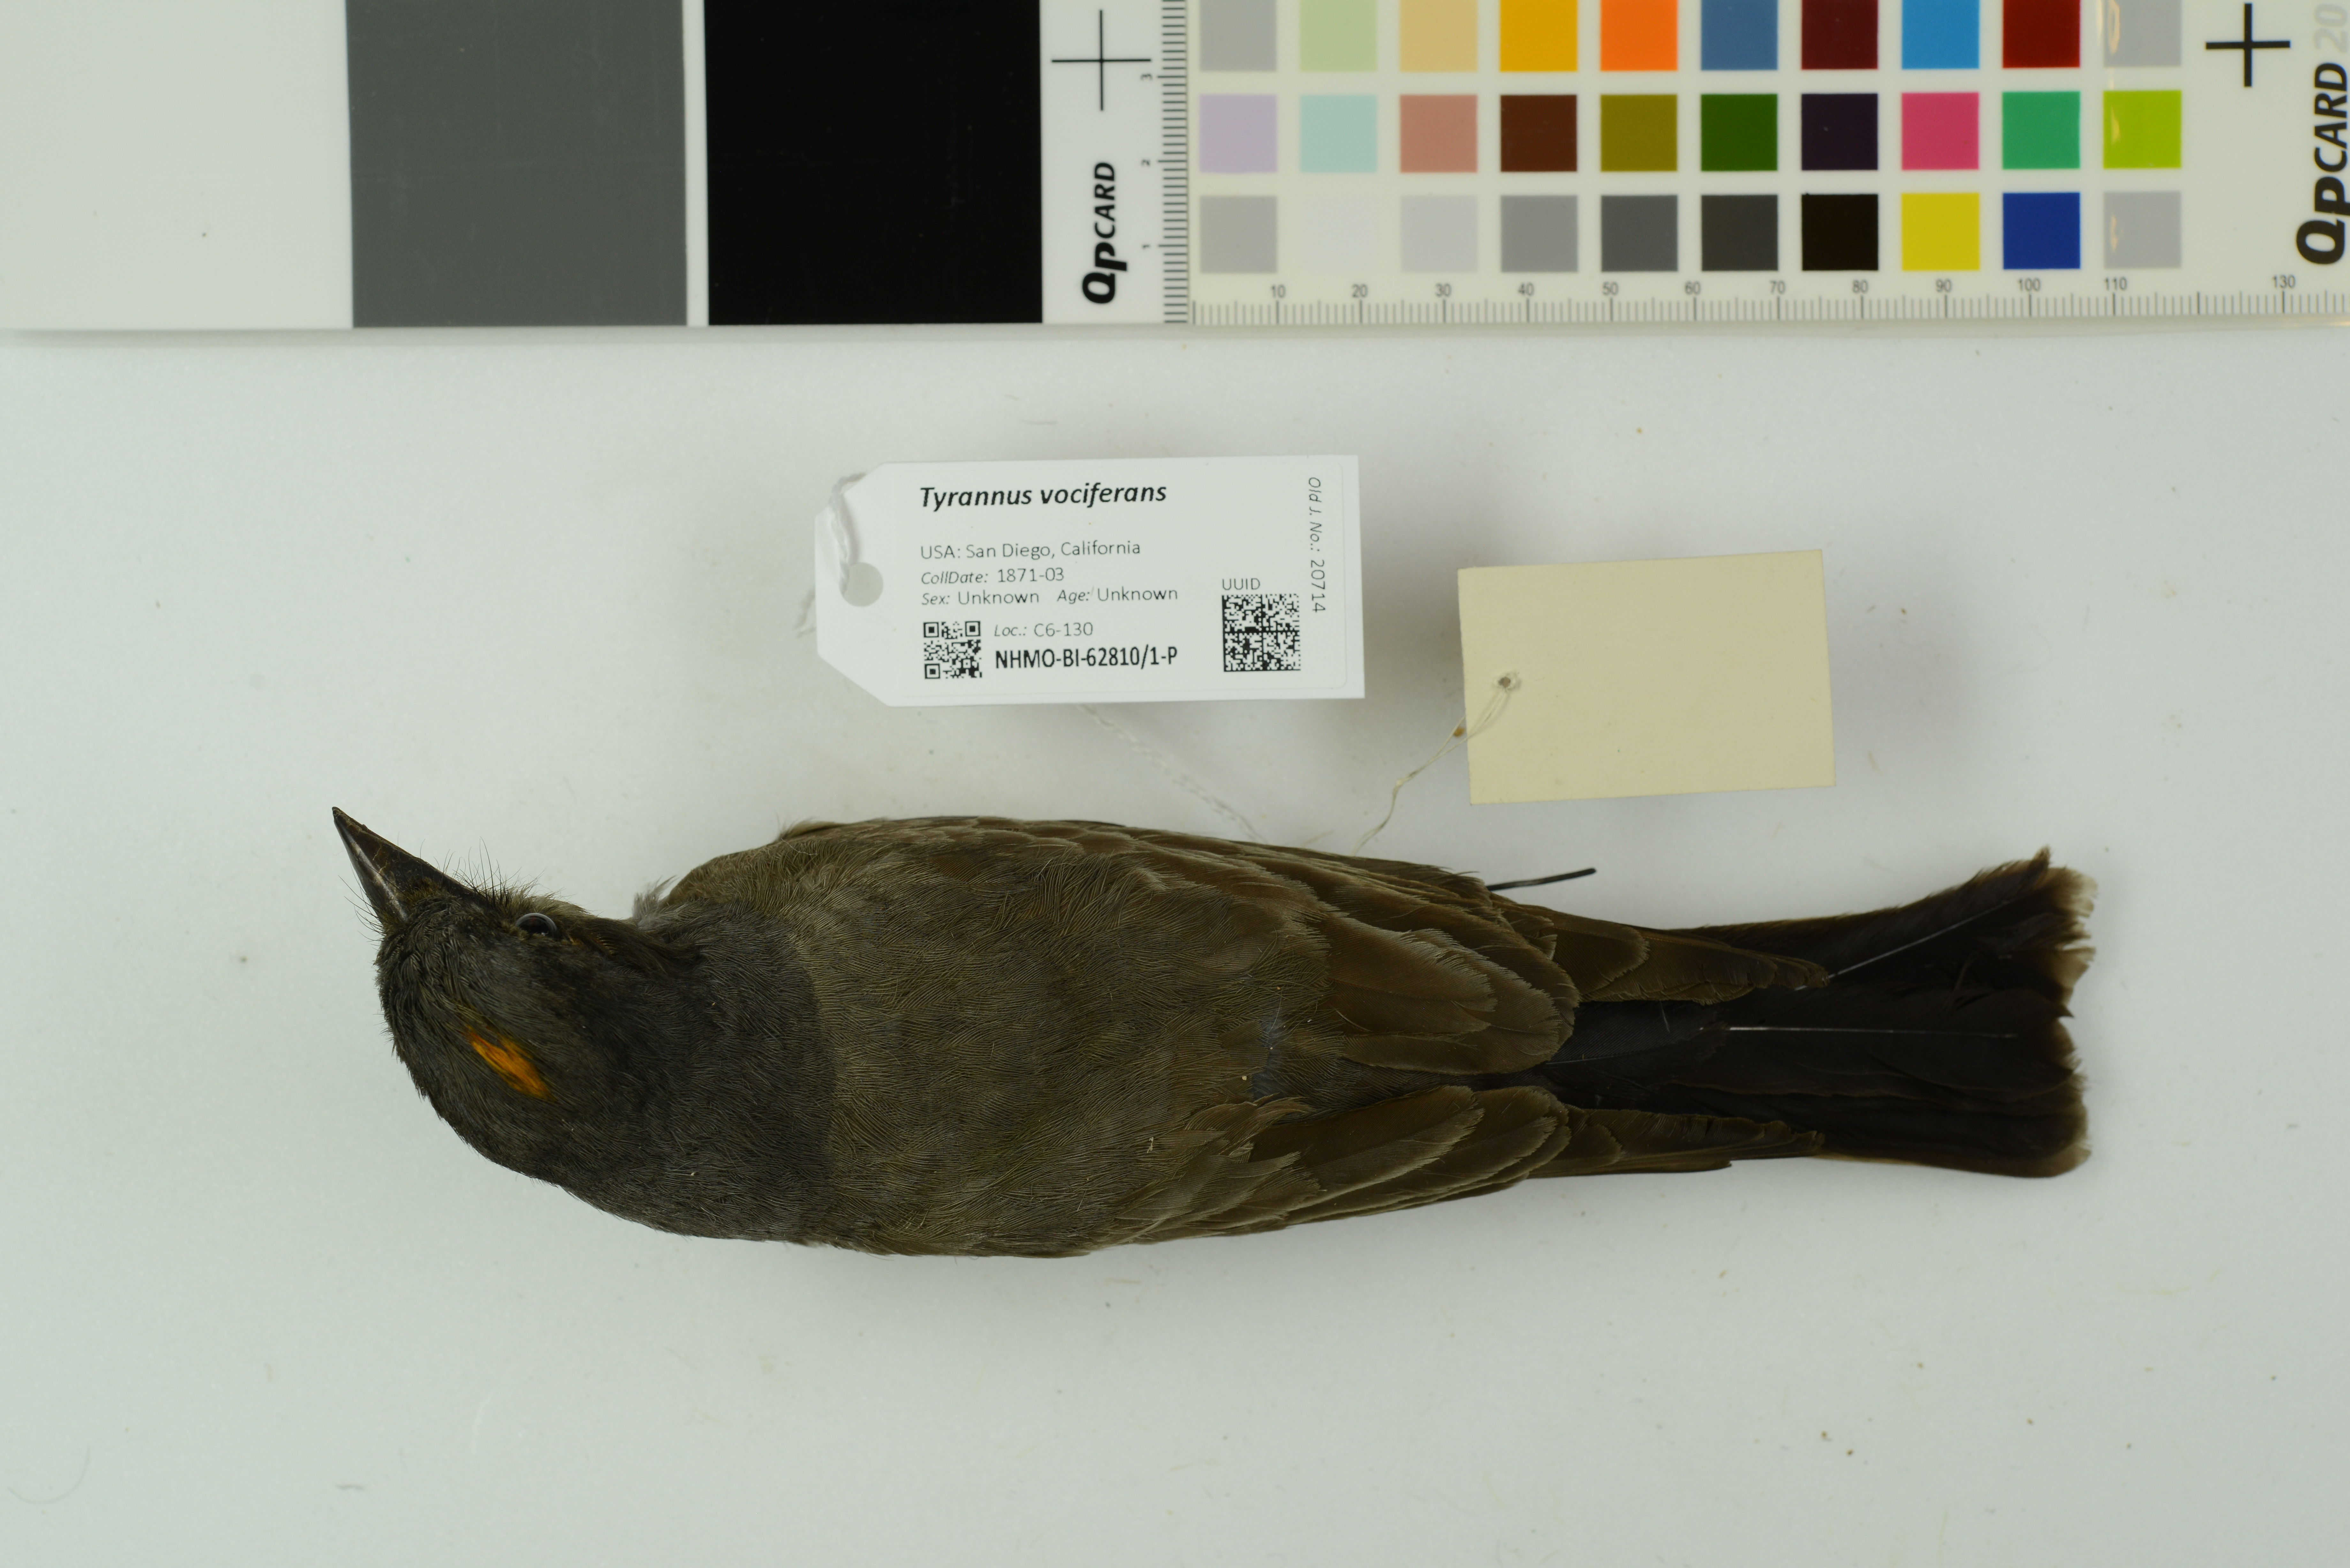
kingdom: Animalia
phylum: Chordata
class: Aves
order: Passeriformes
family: Tyrannidae
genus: Tyrannus
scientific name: Tyrannus vociferans
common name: Cassin's kingbird
